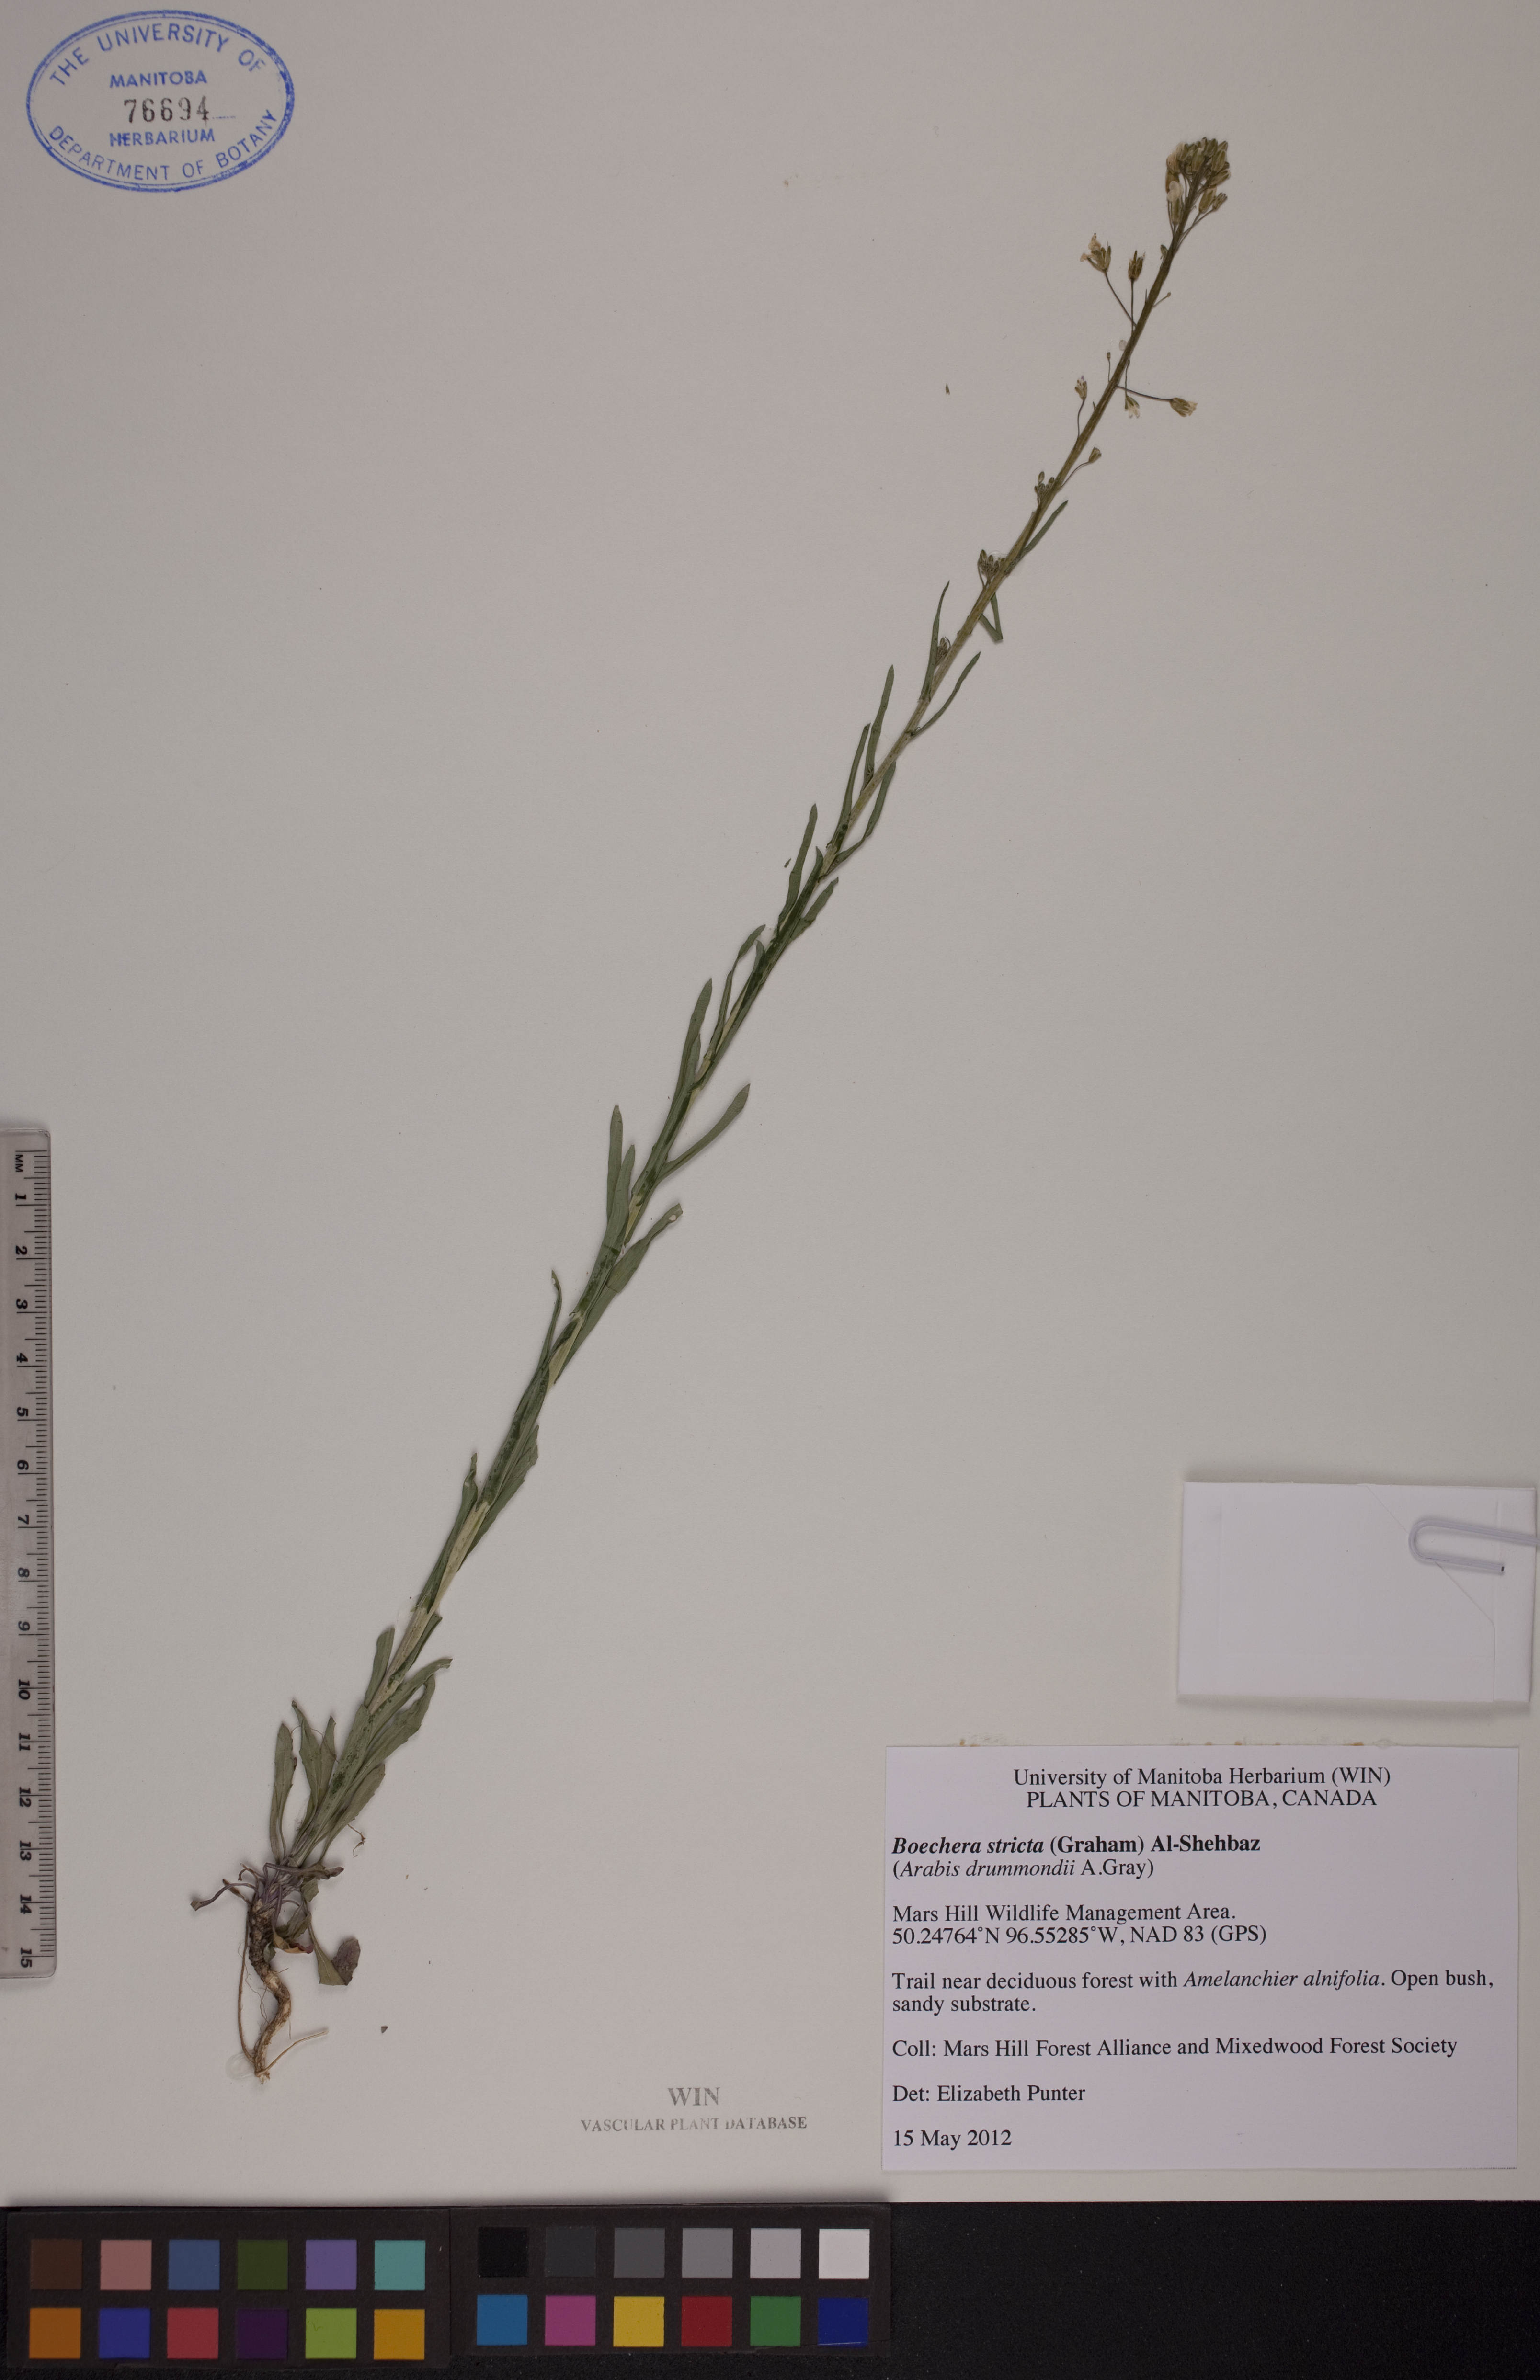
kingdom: Plantae
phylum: Tracheophyta
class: Magnoliopsida
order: Brassicales
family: Brassicaceae
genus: Boechera
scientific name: Boechera stricta
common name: Canadian rockcress
